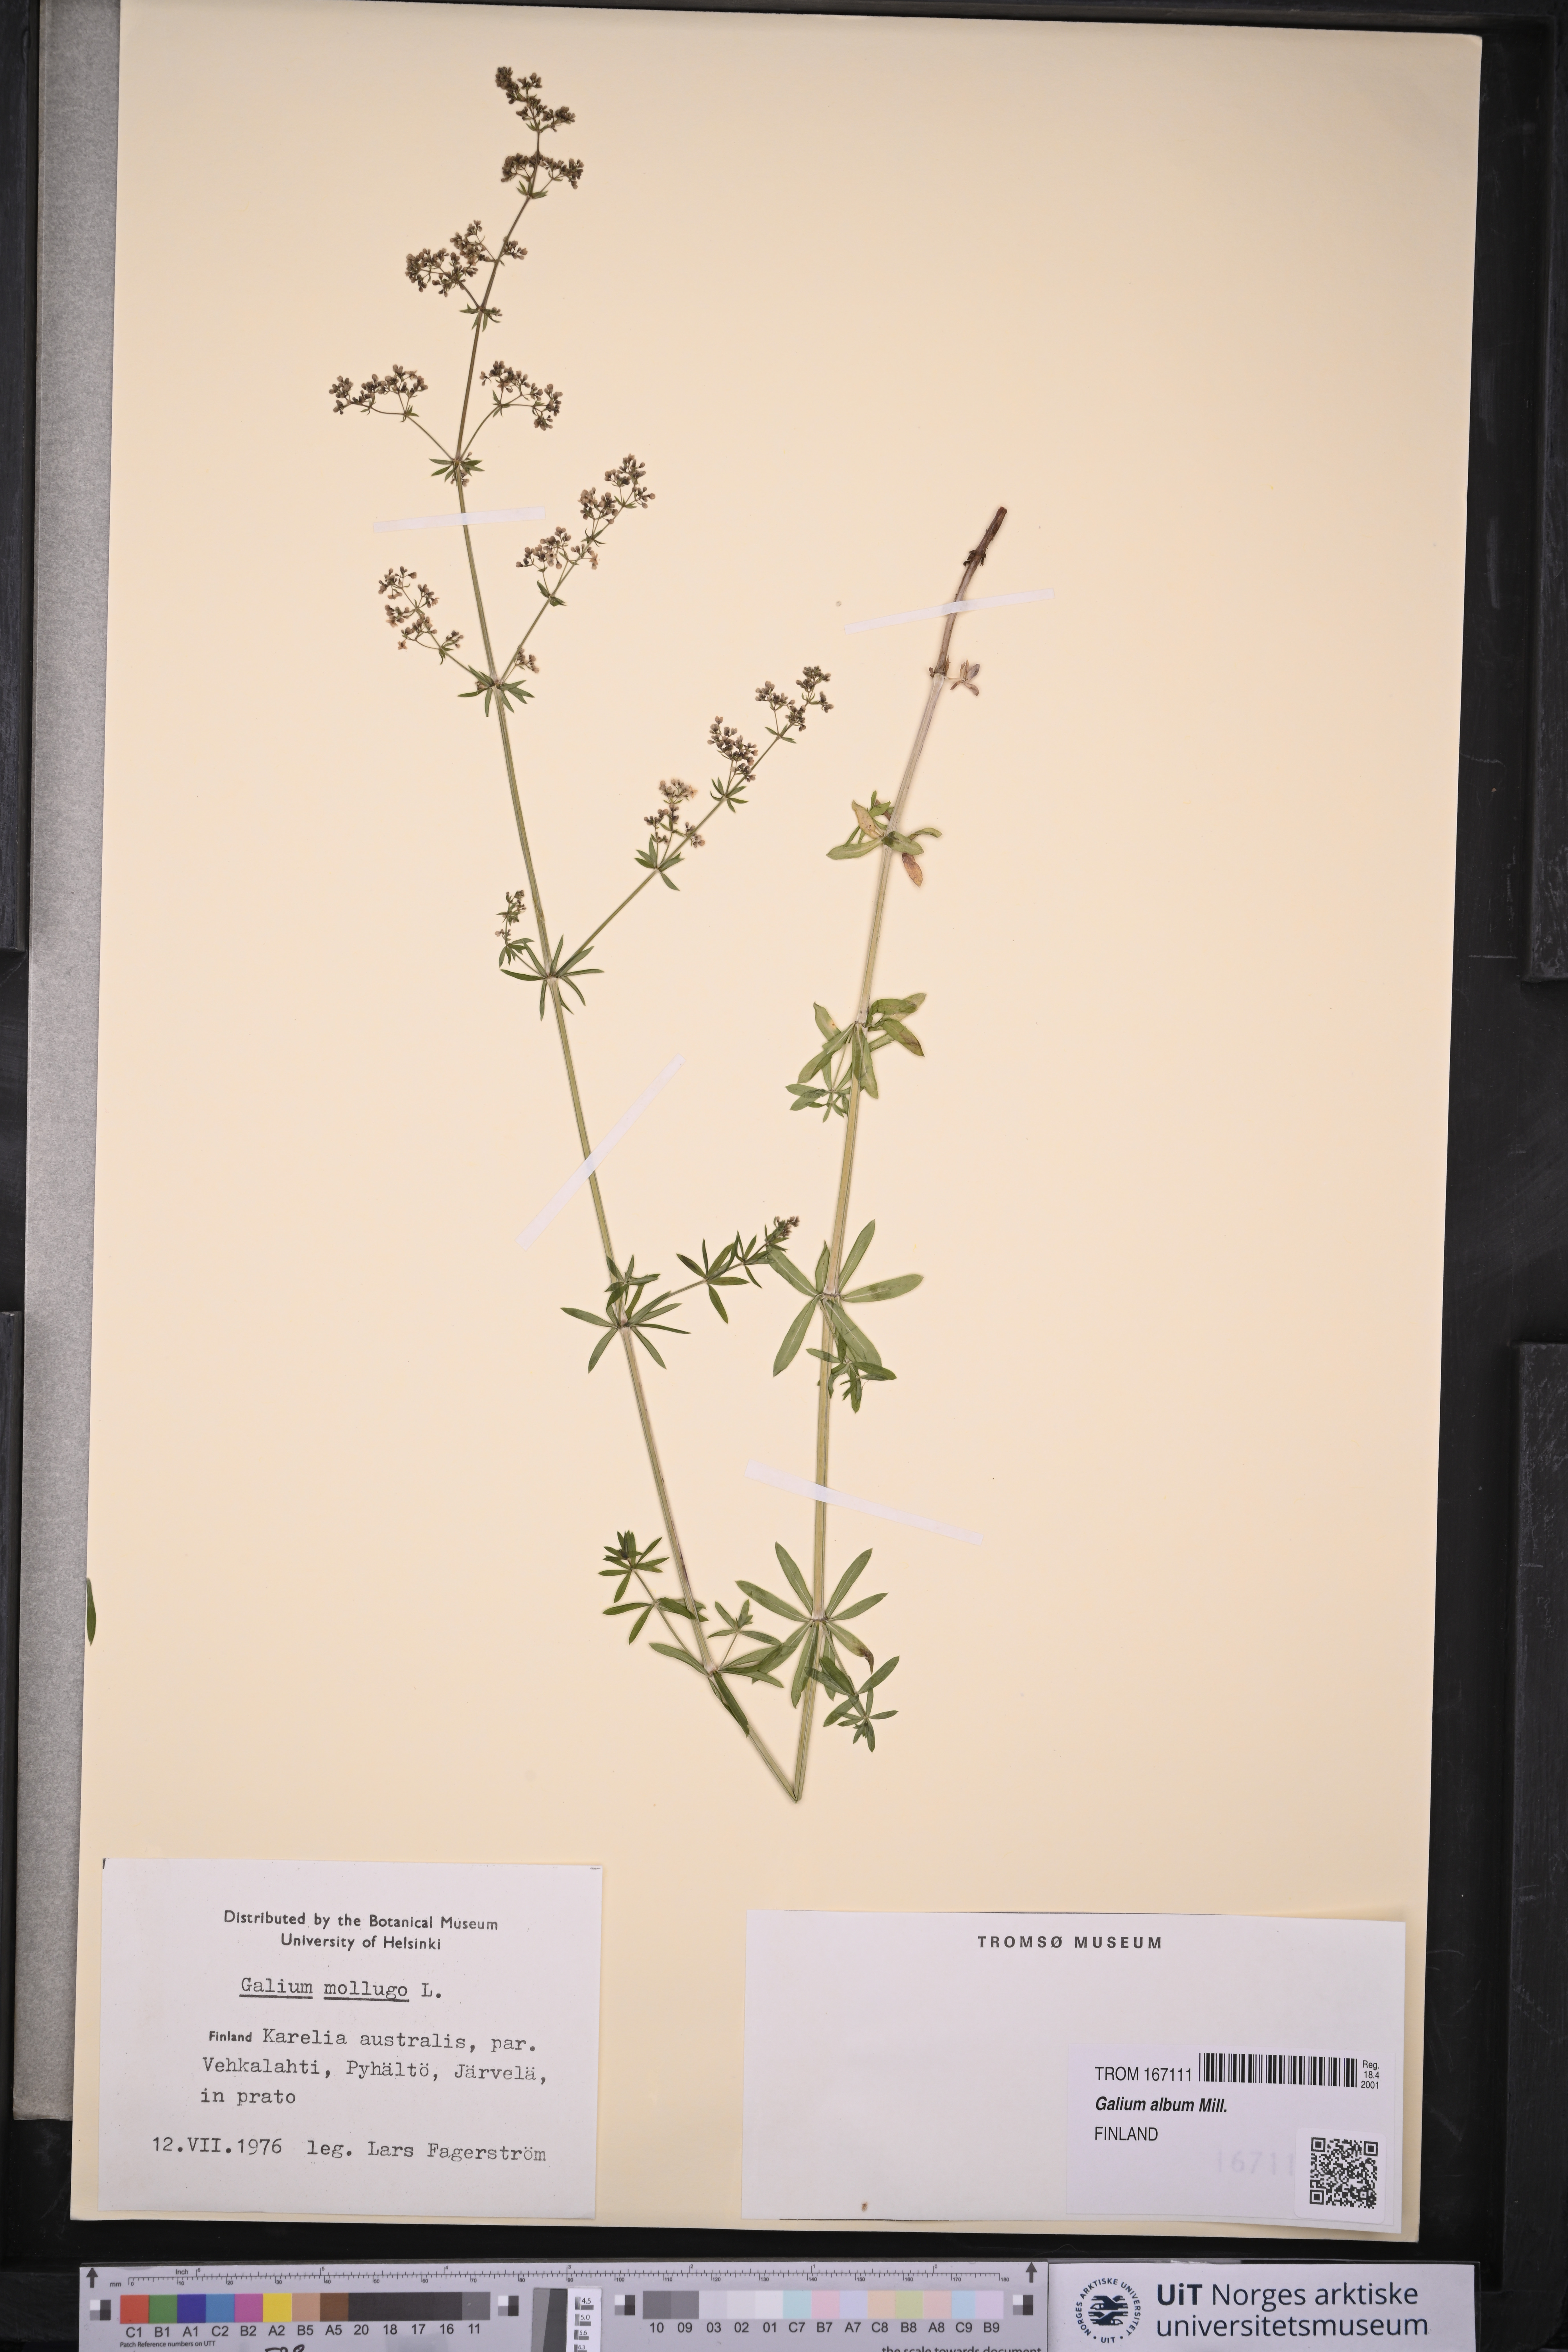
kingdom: Plantae
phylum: Tracheophyta
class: Magnoliopsida
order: Gentianales
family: Rubiaceae
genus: Galium
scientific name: Galium
